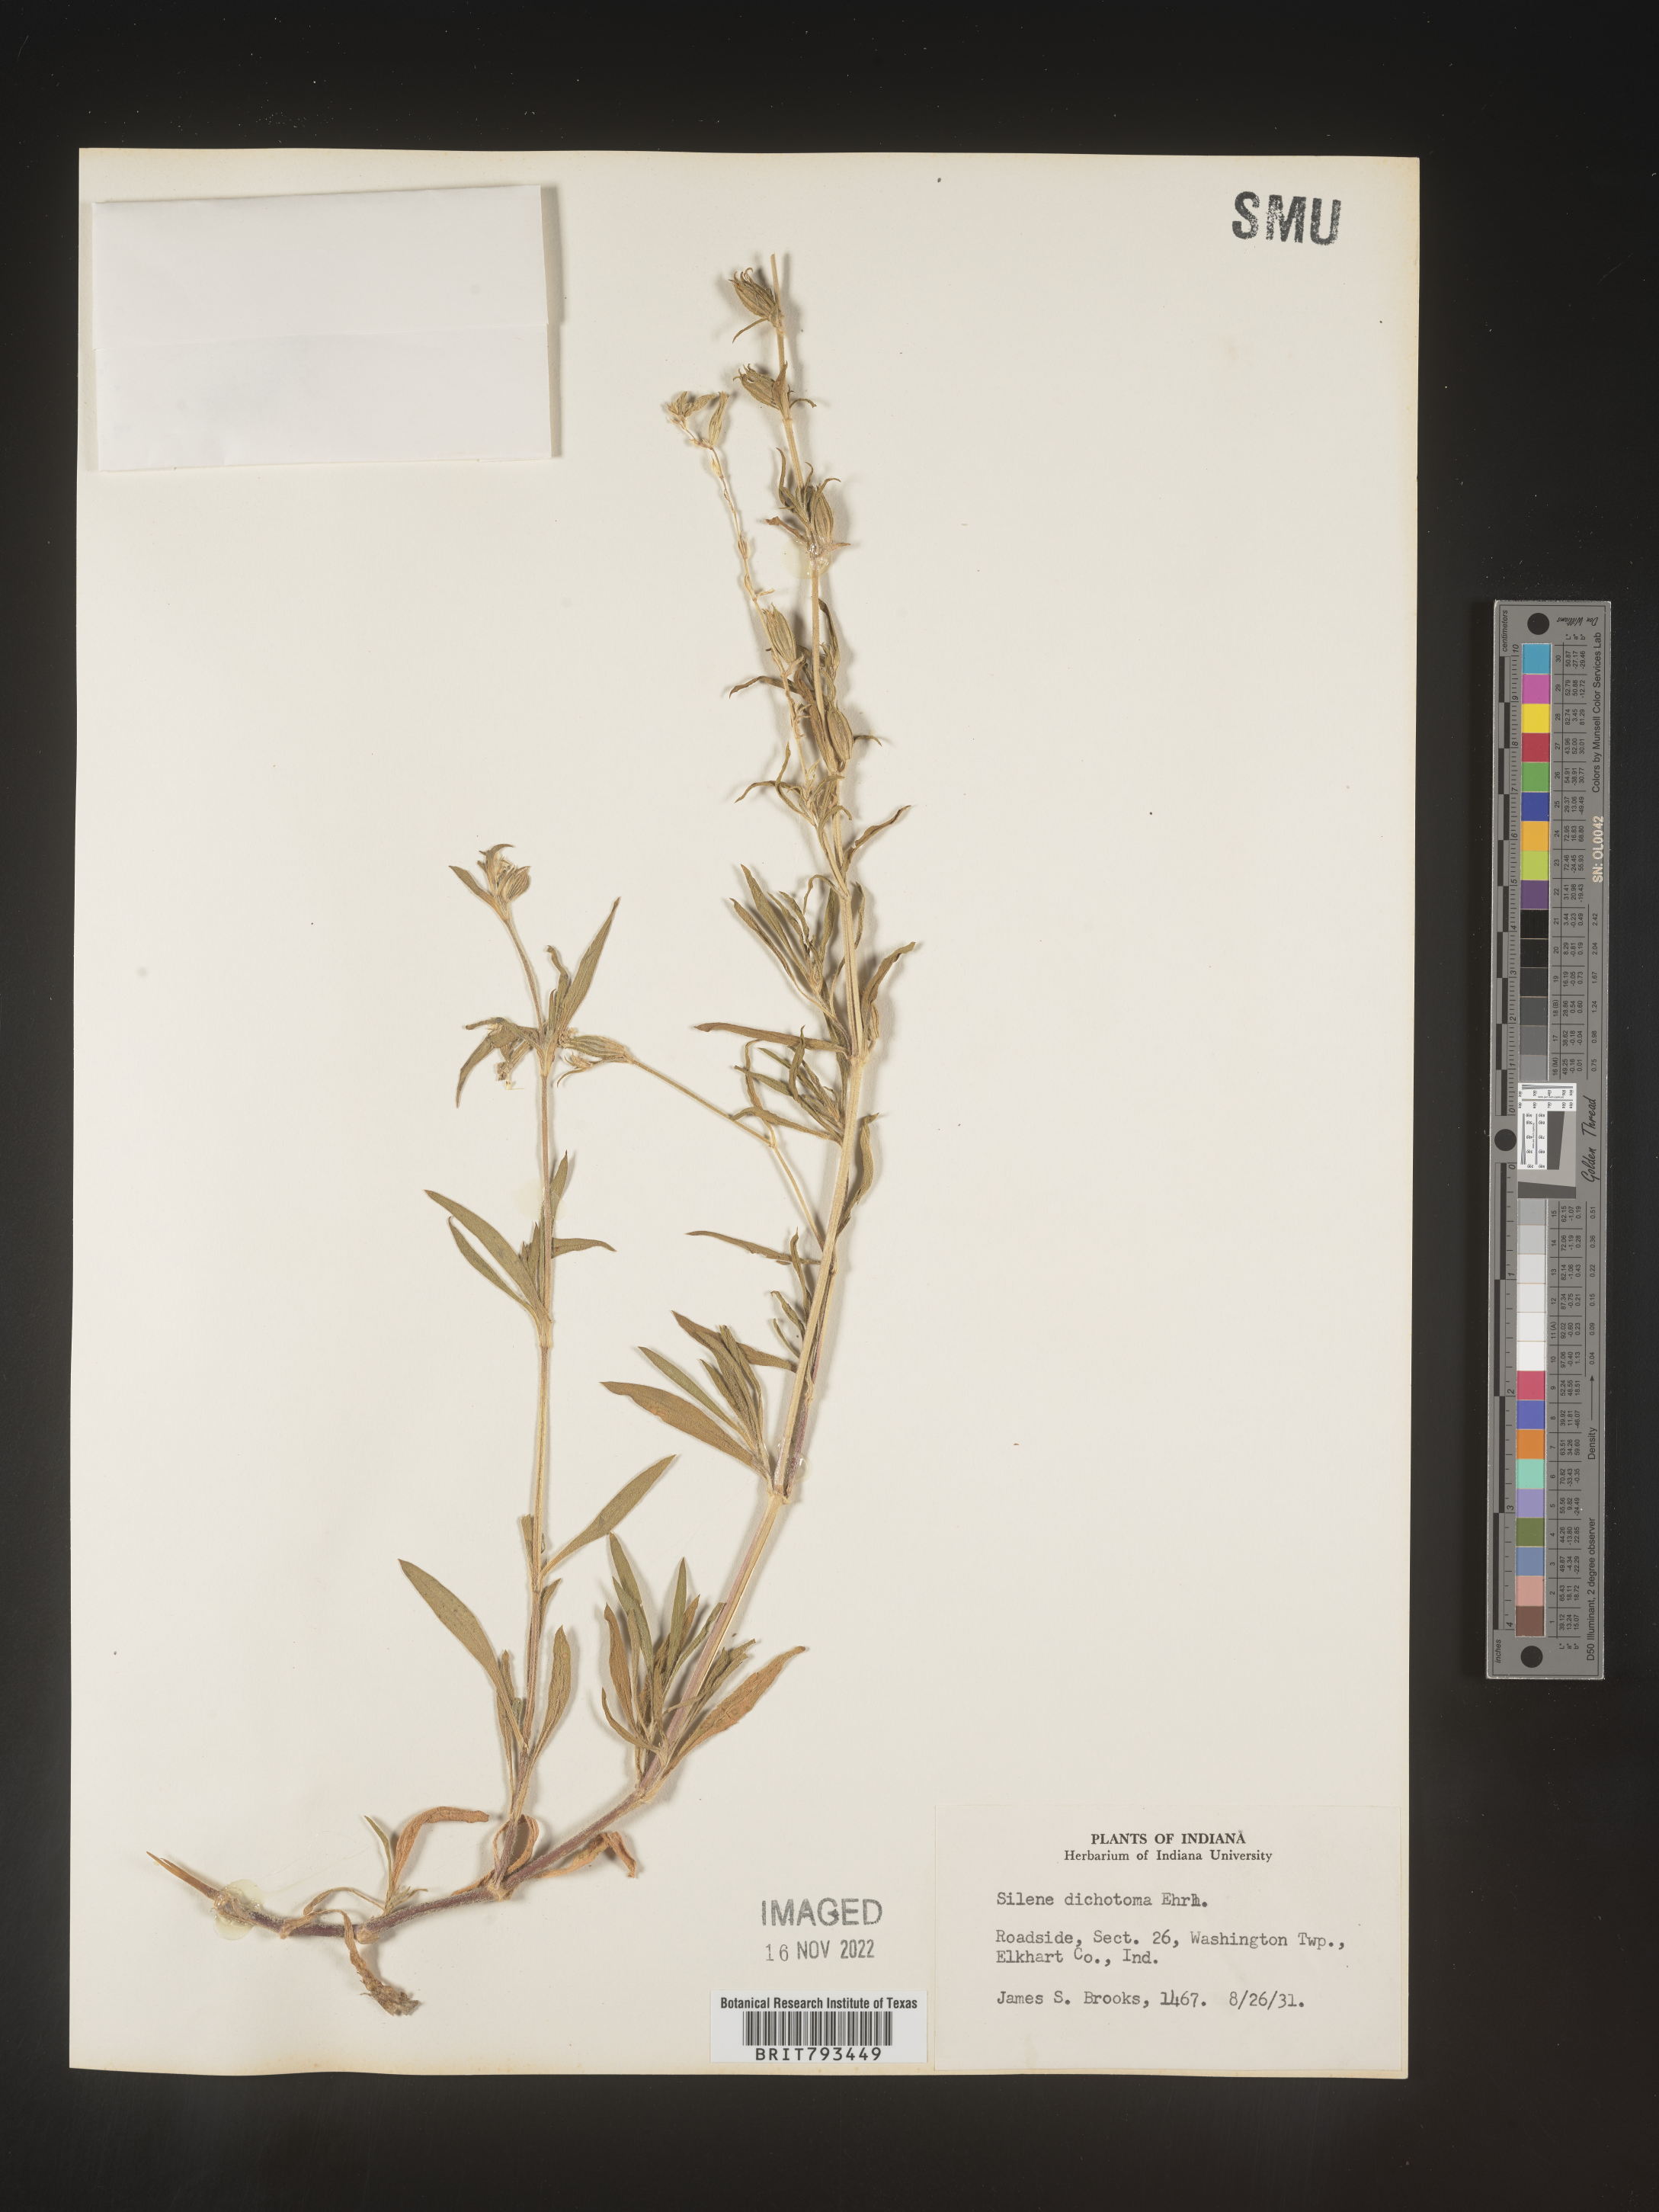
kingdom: Plantae
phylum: Tracheophyta
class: Magnoliopsida
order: Caryophyllales
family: Caryophyllaceae
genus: Silene
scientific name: Silene dichotoma
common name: Forked catchfly
